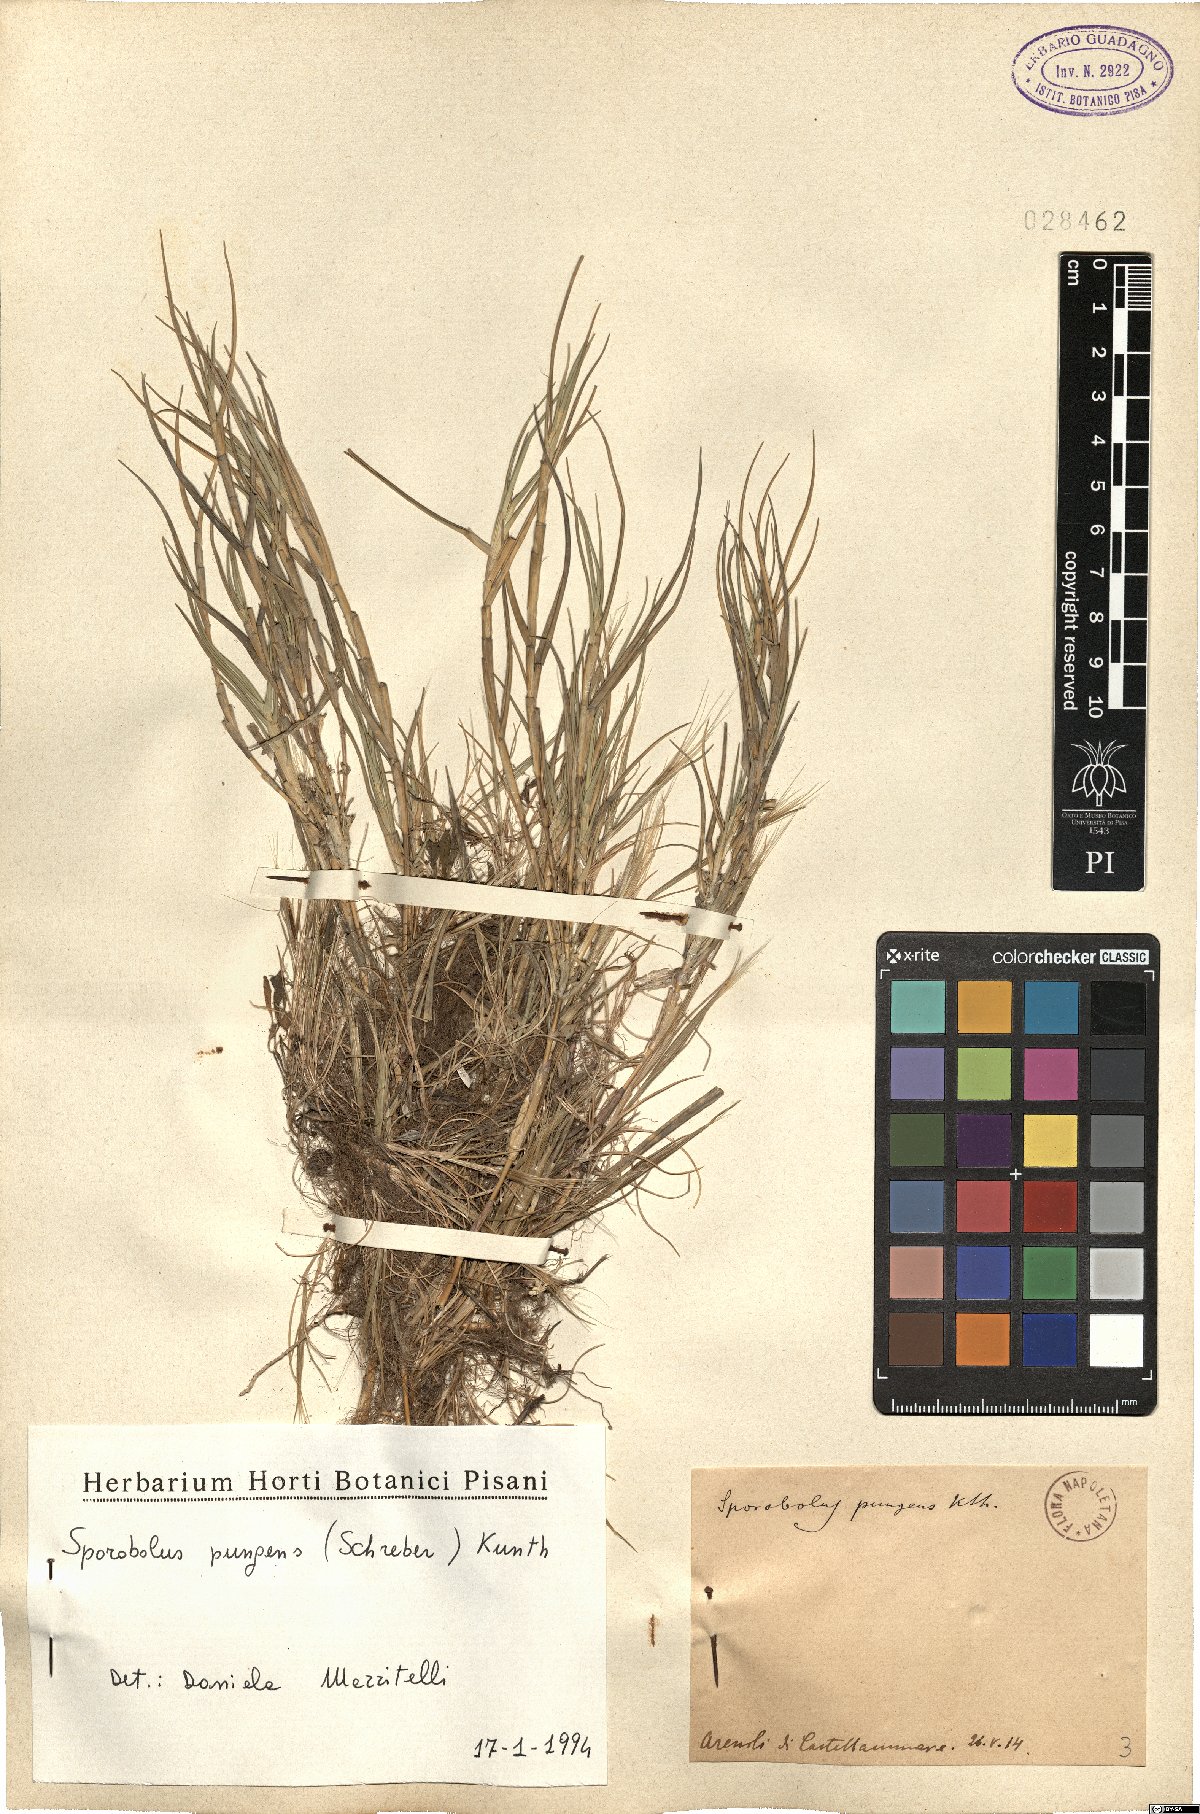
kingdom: Plantae
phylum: Tracheophyta
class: Liliopsida
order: Poales
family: Poaceae
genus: Sporobolus
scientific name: Sporobolus pungens
